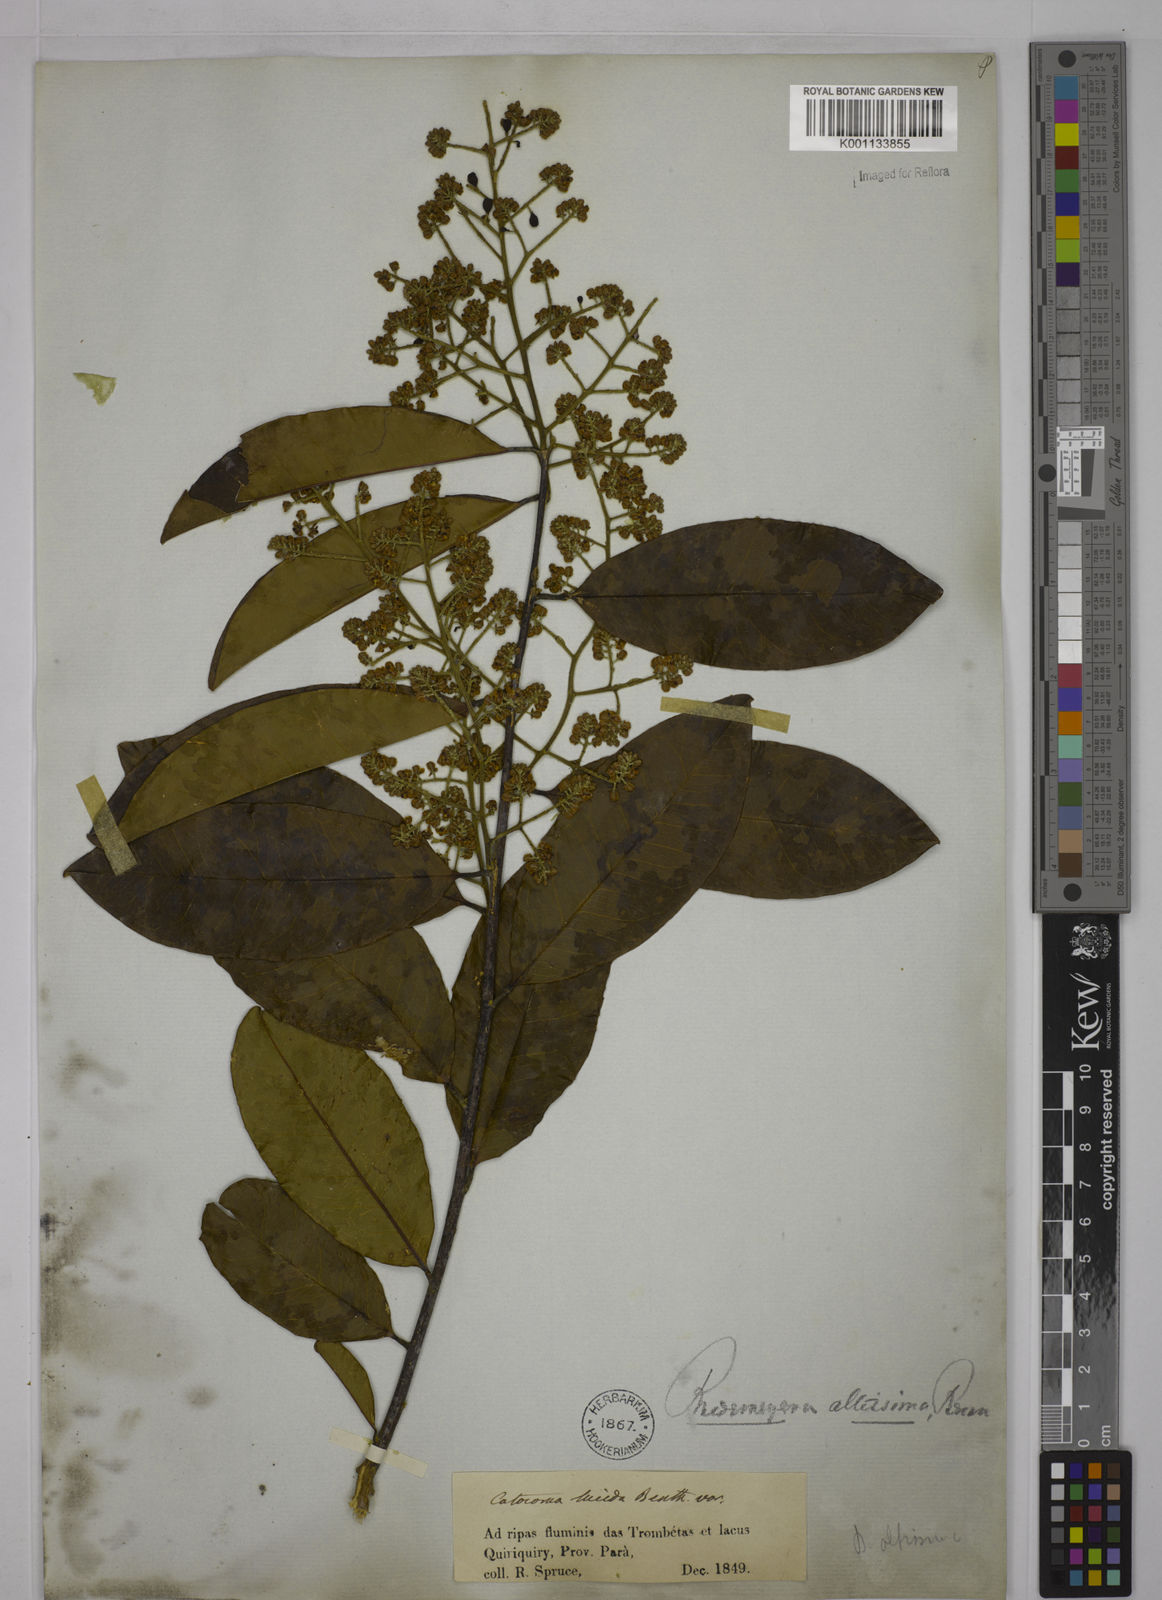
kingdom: Plantae
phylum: Tracheophyta
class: Magnoliopsida
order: Fabales
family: Polygalaceae
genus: Bredemeyera
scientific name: Bredemeyera divaricata
